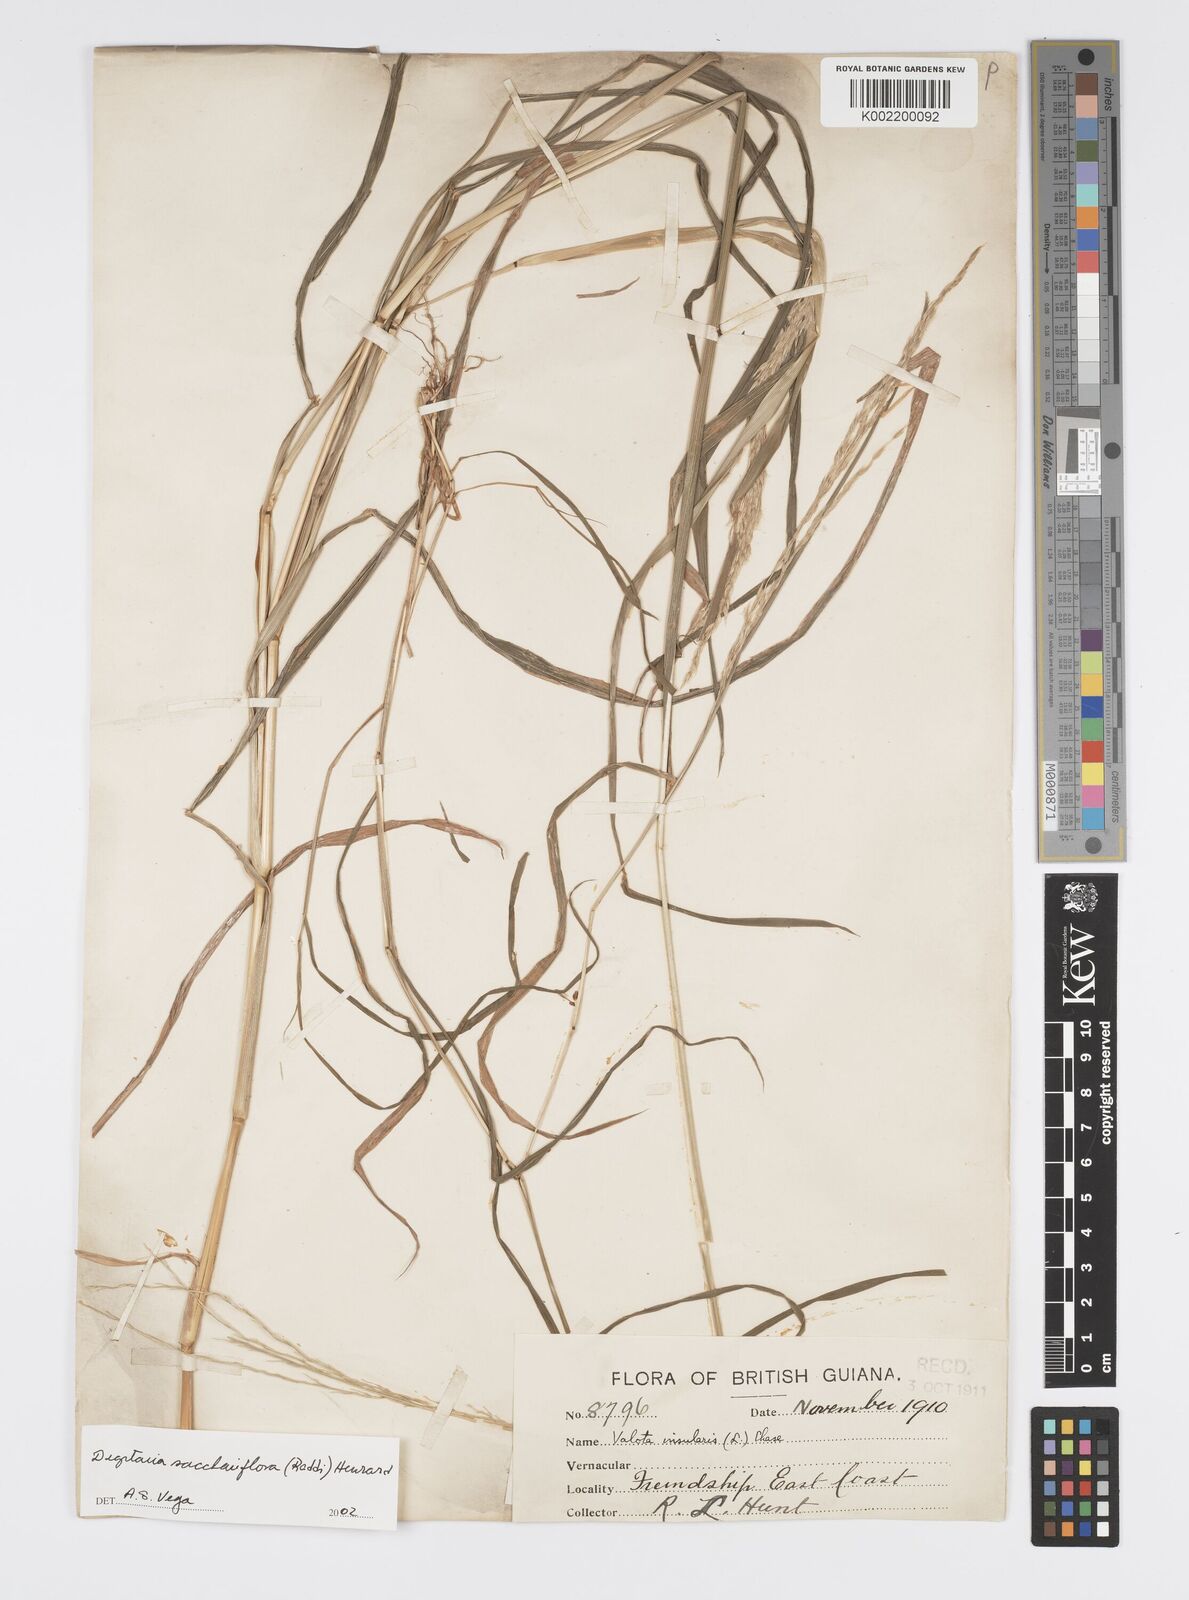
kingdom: Plantae
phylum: Tracheophyta
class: Liliopsida
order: Poales
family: Poaceae
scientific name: Poaceae
